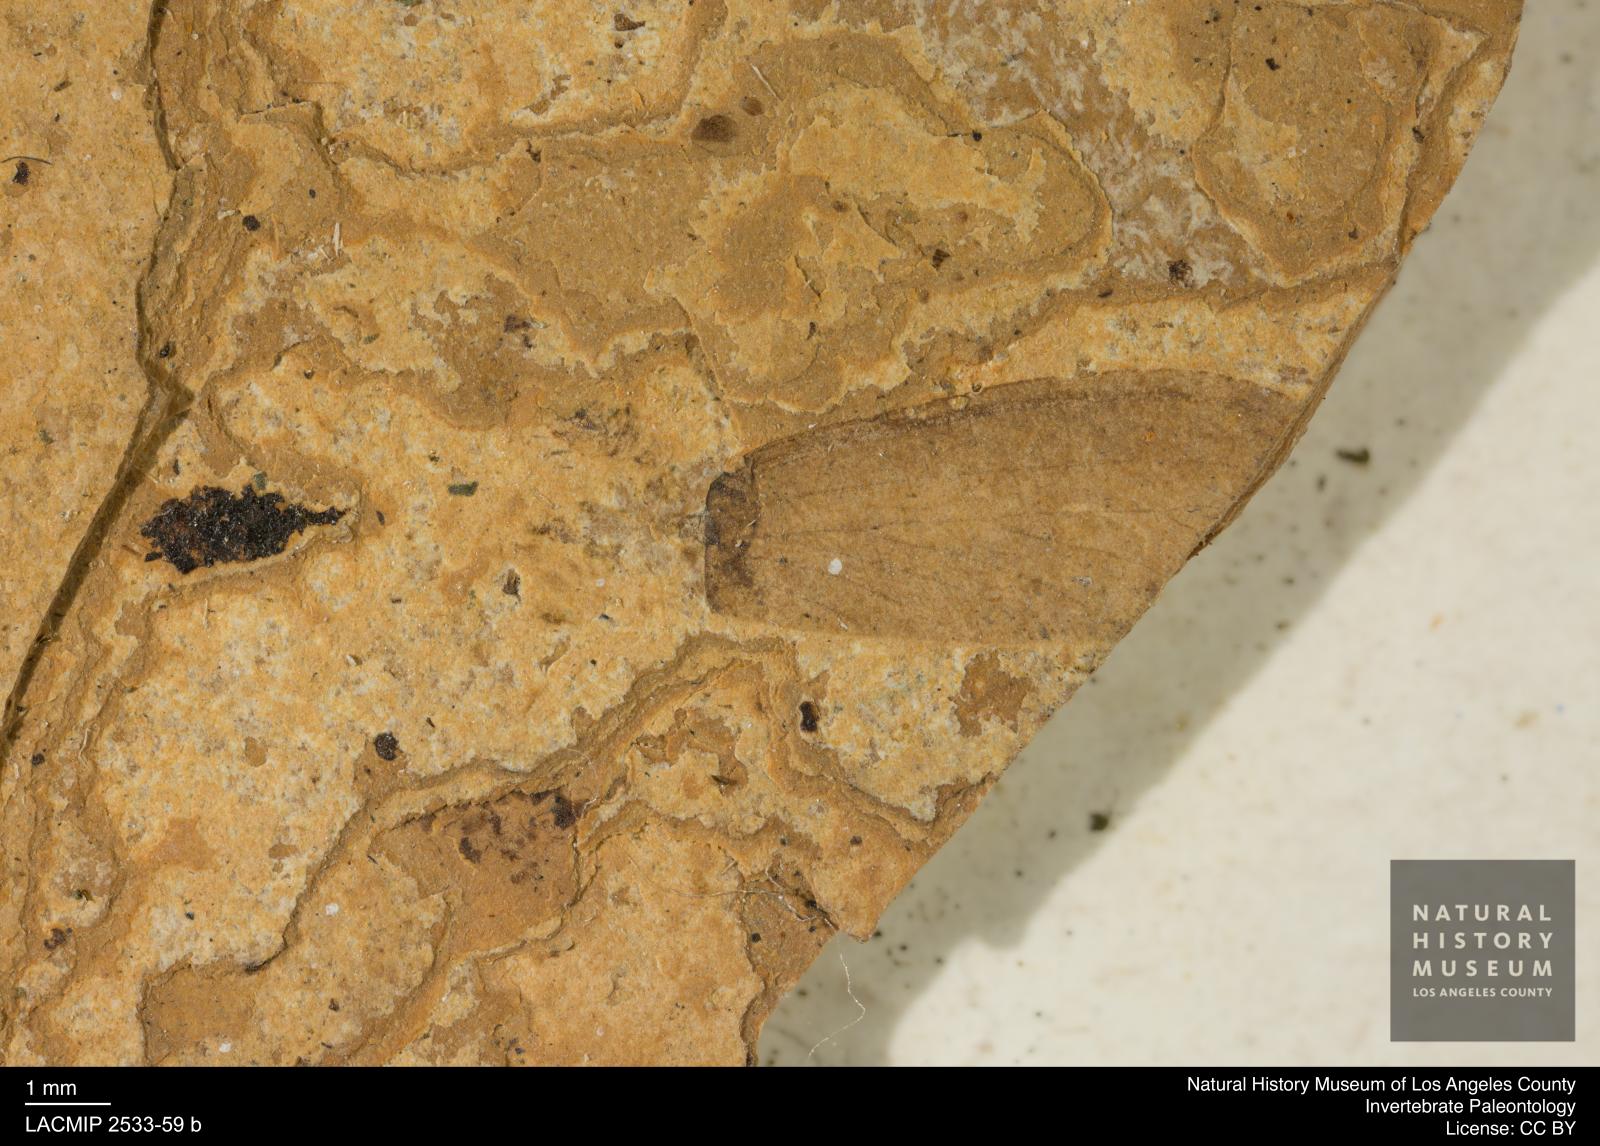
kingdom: Animalia
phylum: Arthropoda
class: Insecta
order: Blattodea
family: Rhinotermitidae
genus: Reticulitermes
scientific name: Reticulitermes holmgreni
